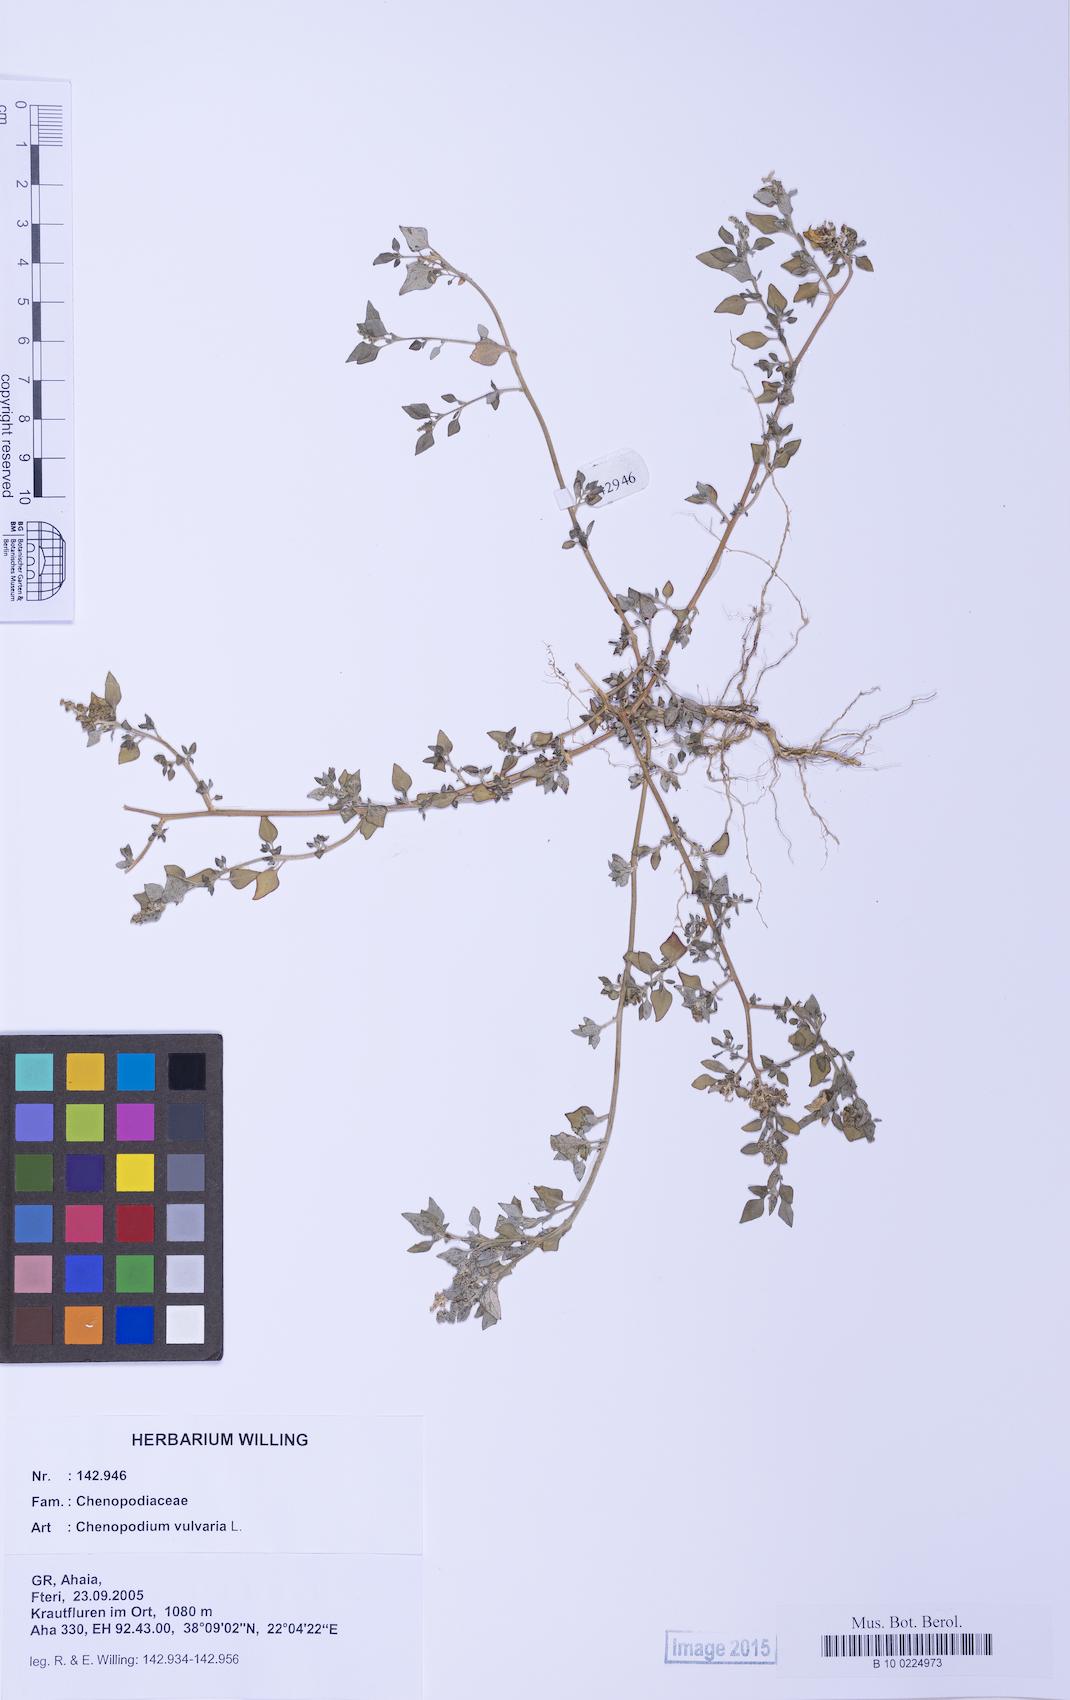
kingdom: Plantae
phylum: Tracheophyta
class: Magnoliopsida
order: Caryophyllales
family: Amaranthaceae
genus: Chenopodium
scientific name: Chenopodium vulvaria
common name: Stinking goosefoot
